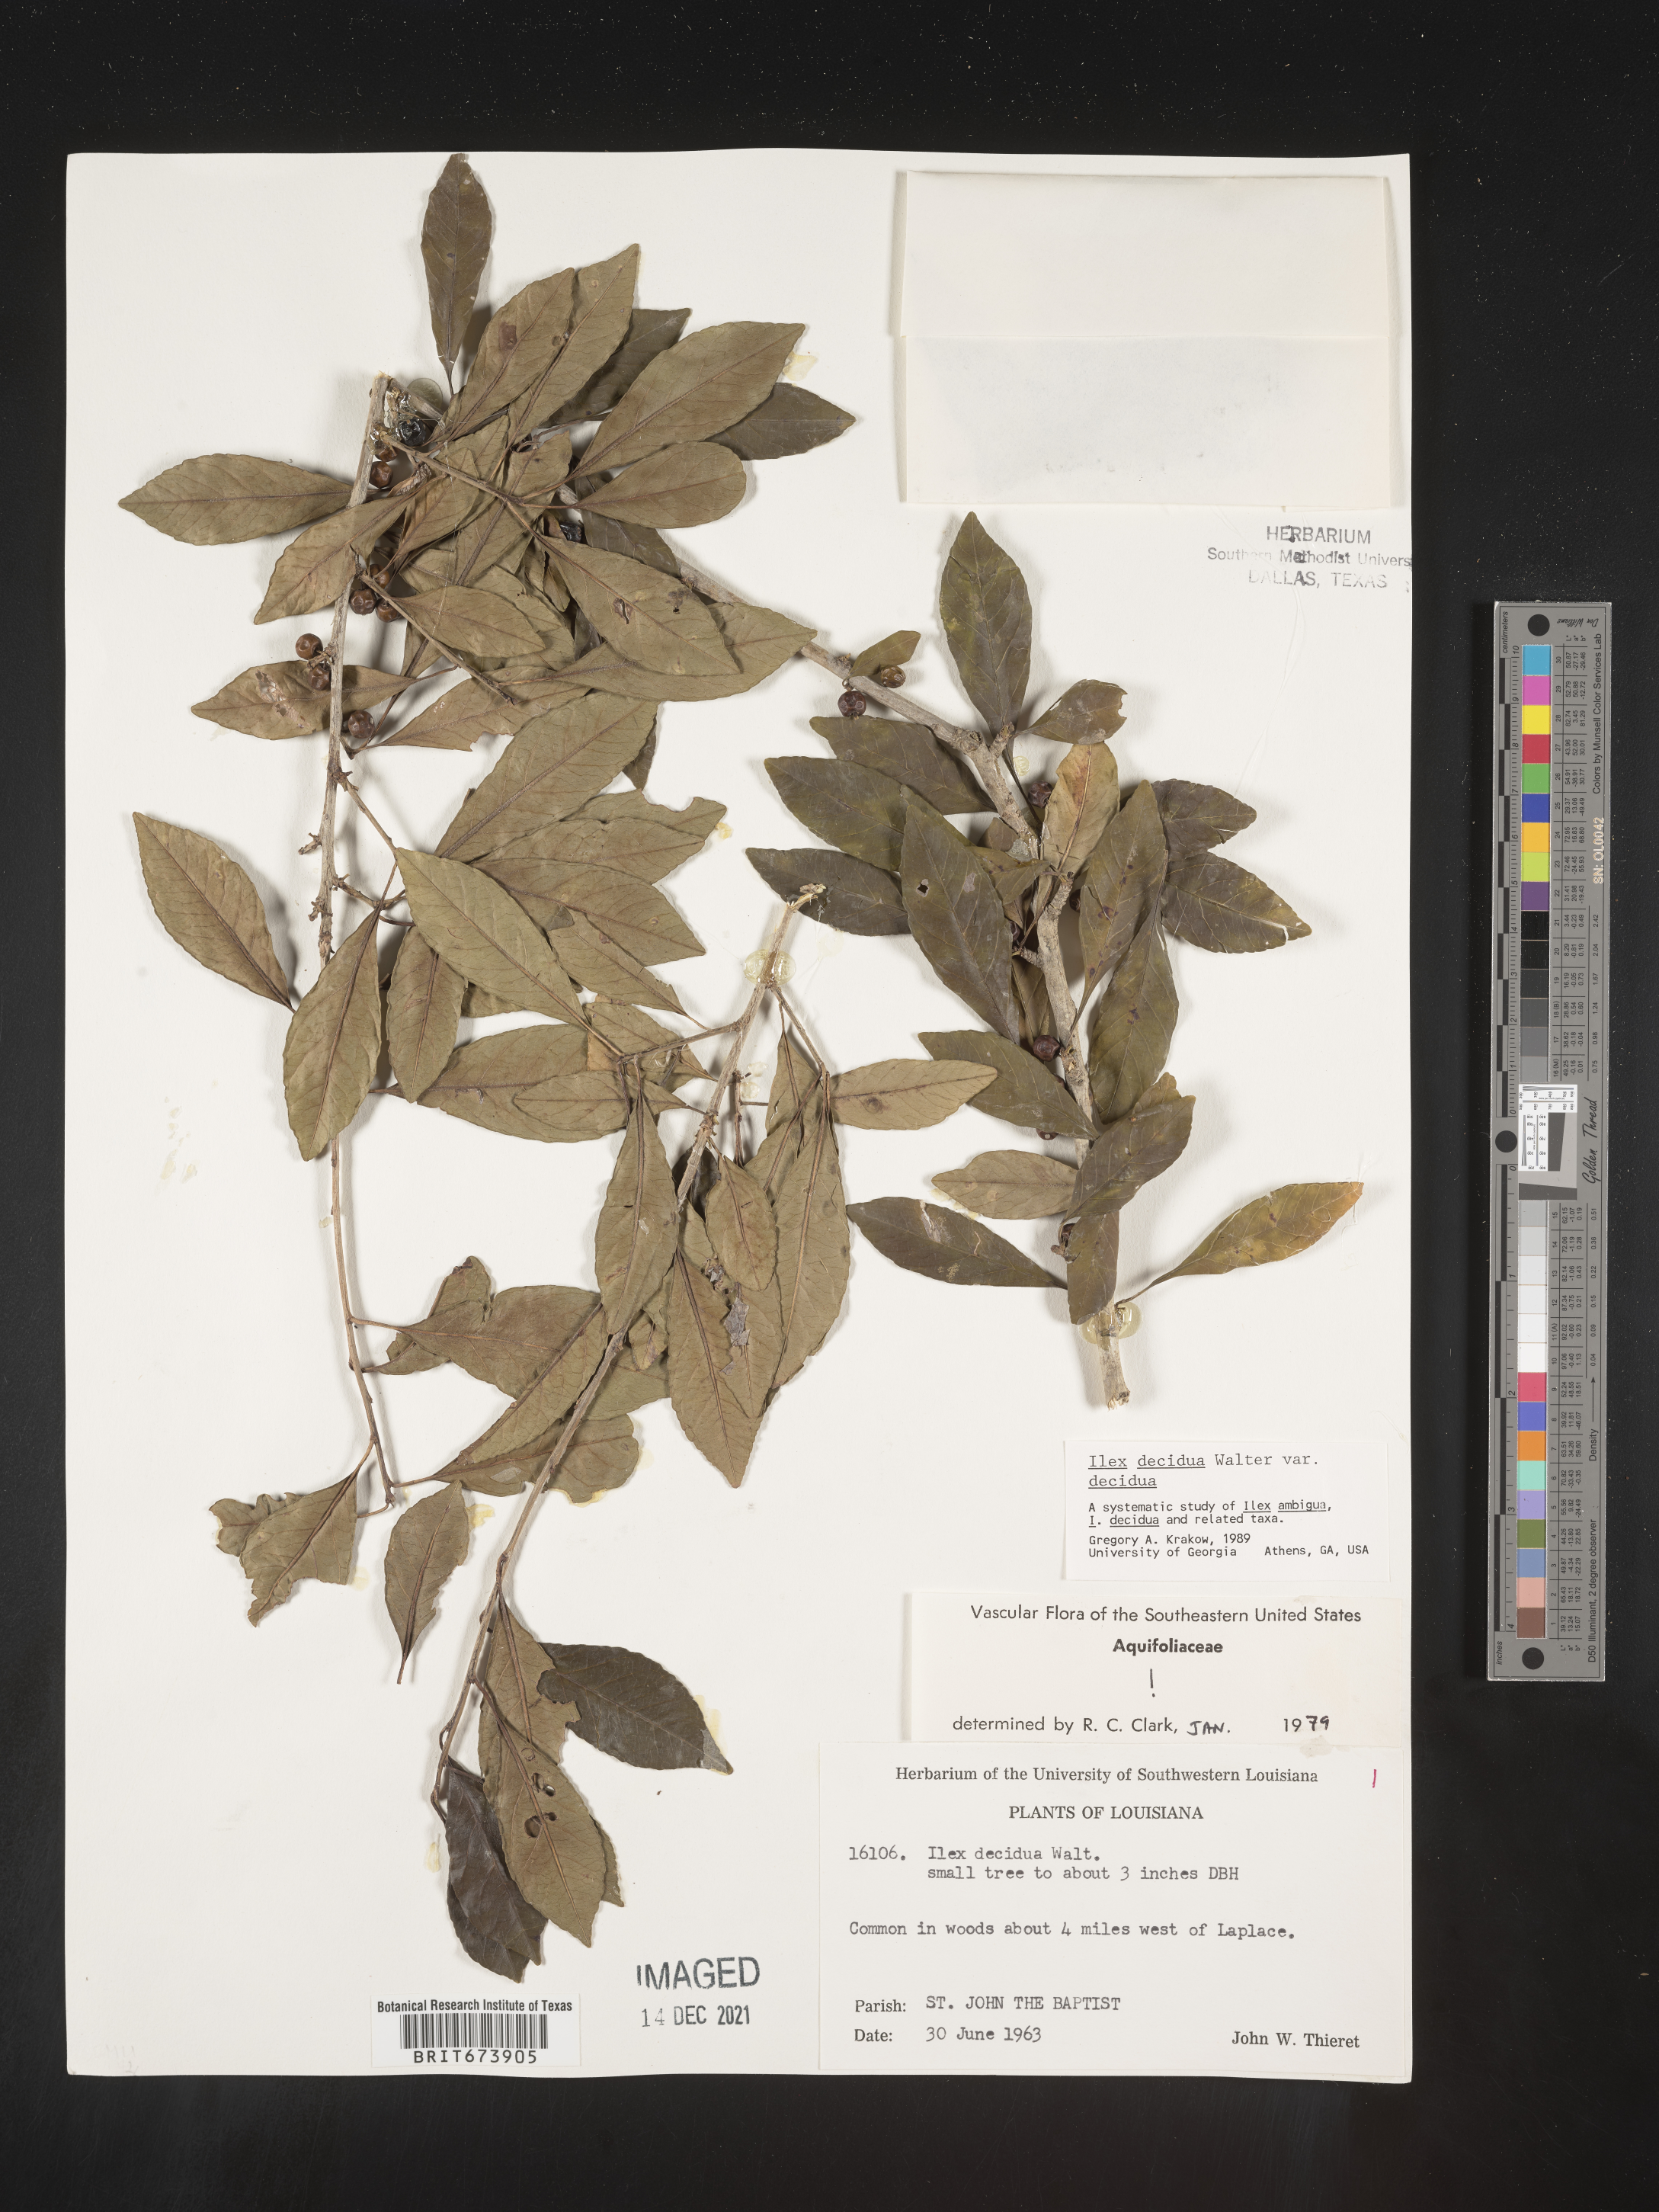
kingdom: Plantae
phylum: Tracheophyta
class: Magnoliopsida
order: Aquifoliales
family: Aquifoliaceae
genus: Ilex
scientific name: Ilex decidua
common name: Possum-haw
